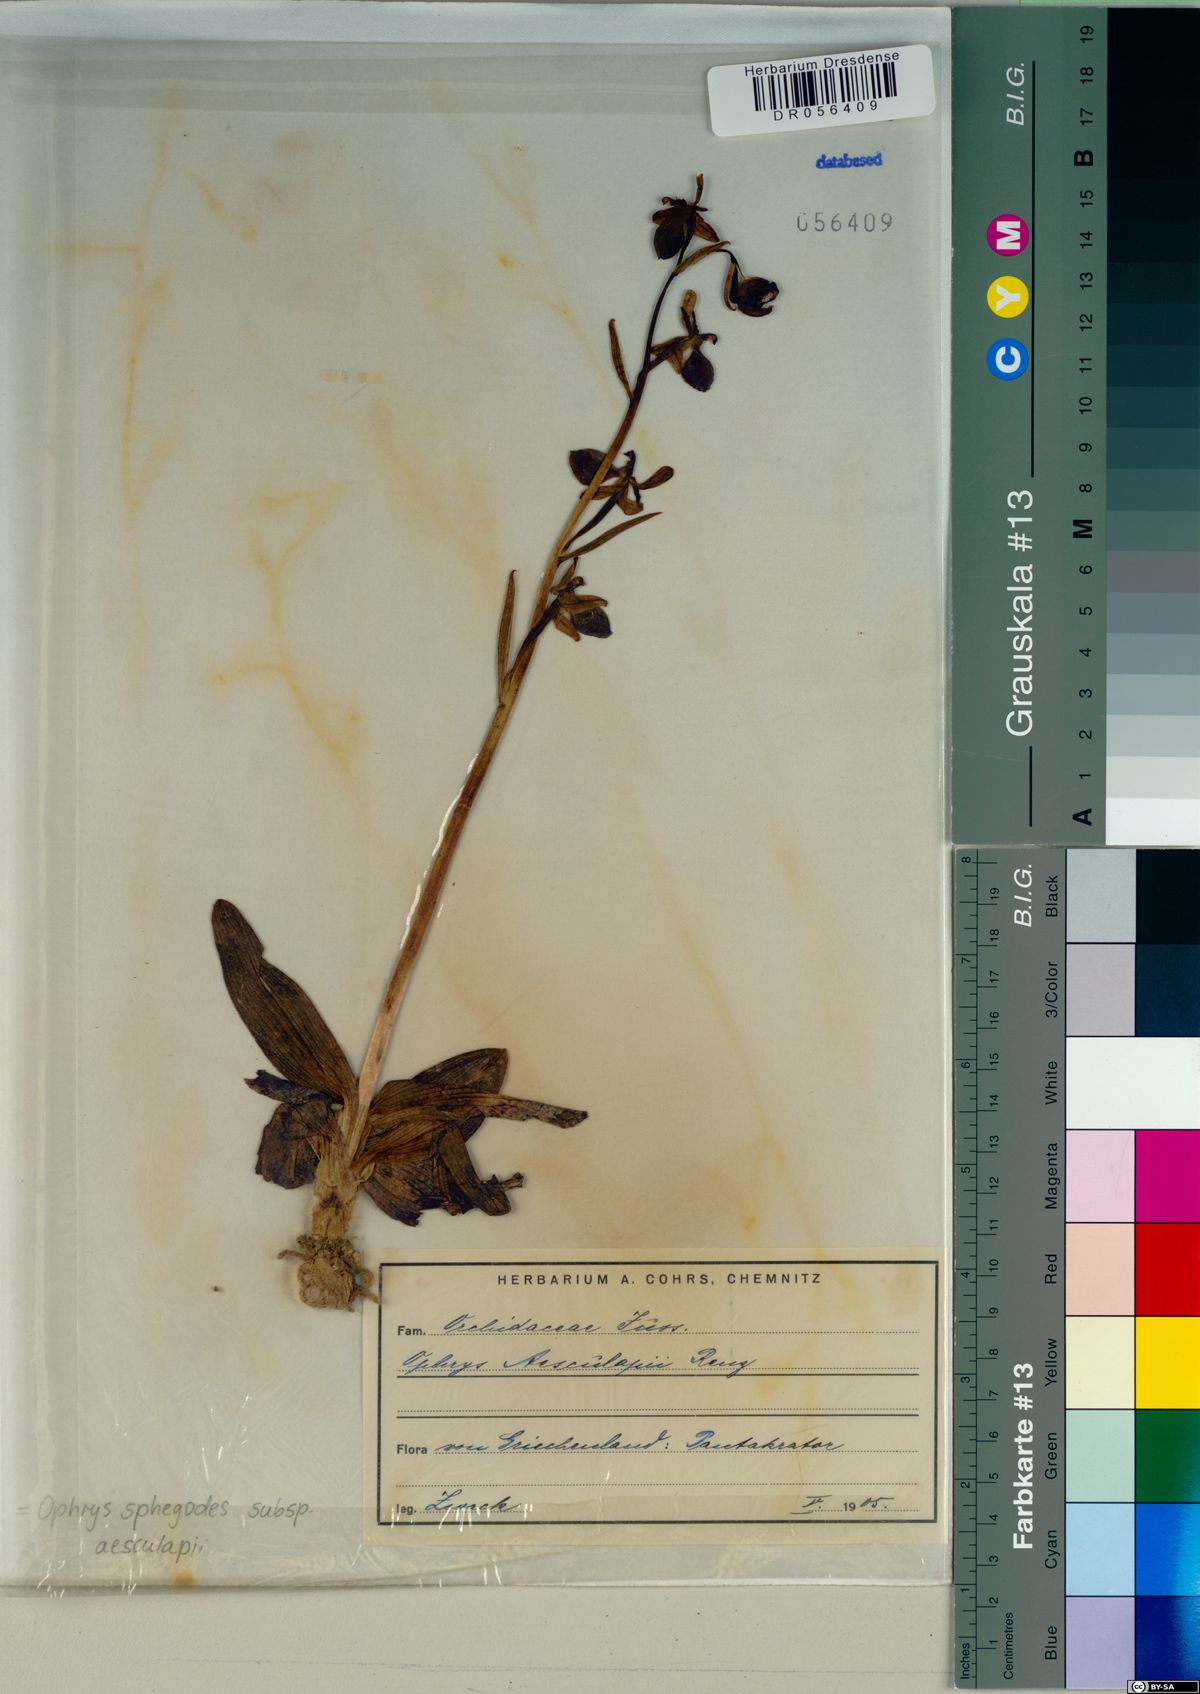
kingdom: Plantae
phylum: Tracheophyta
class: Liliopsida
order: Asparagales
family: Orchidaceae
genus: Ophrys
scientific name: Ophrys sphegodes
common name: Early spider-orchid
